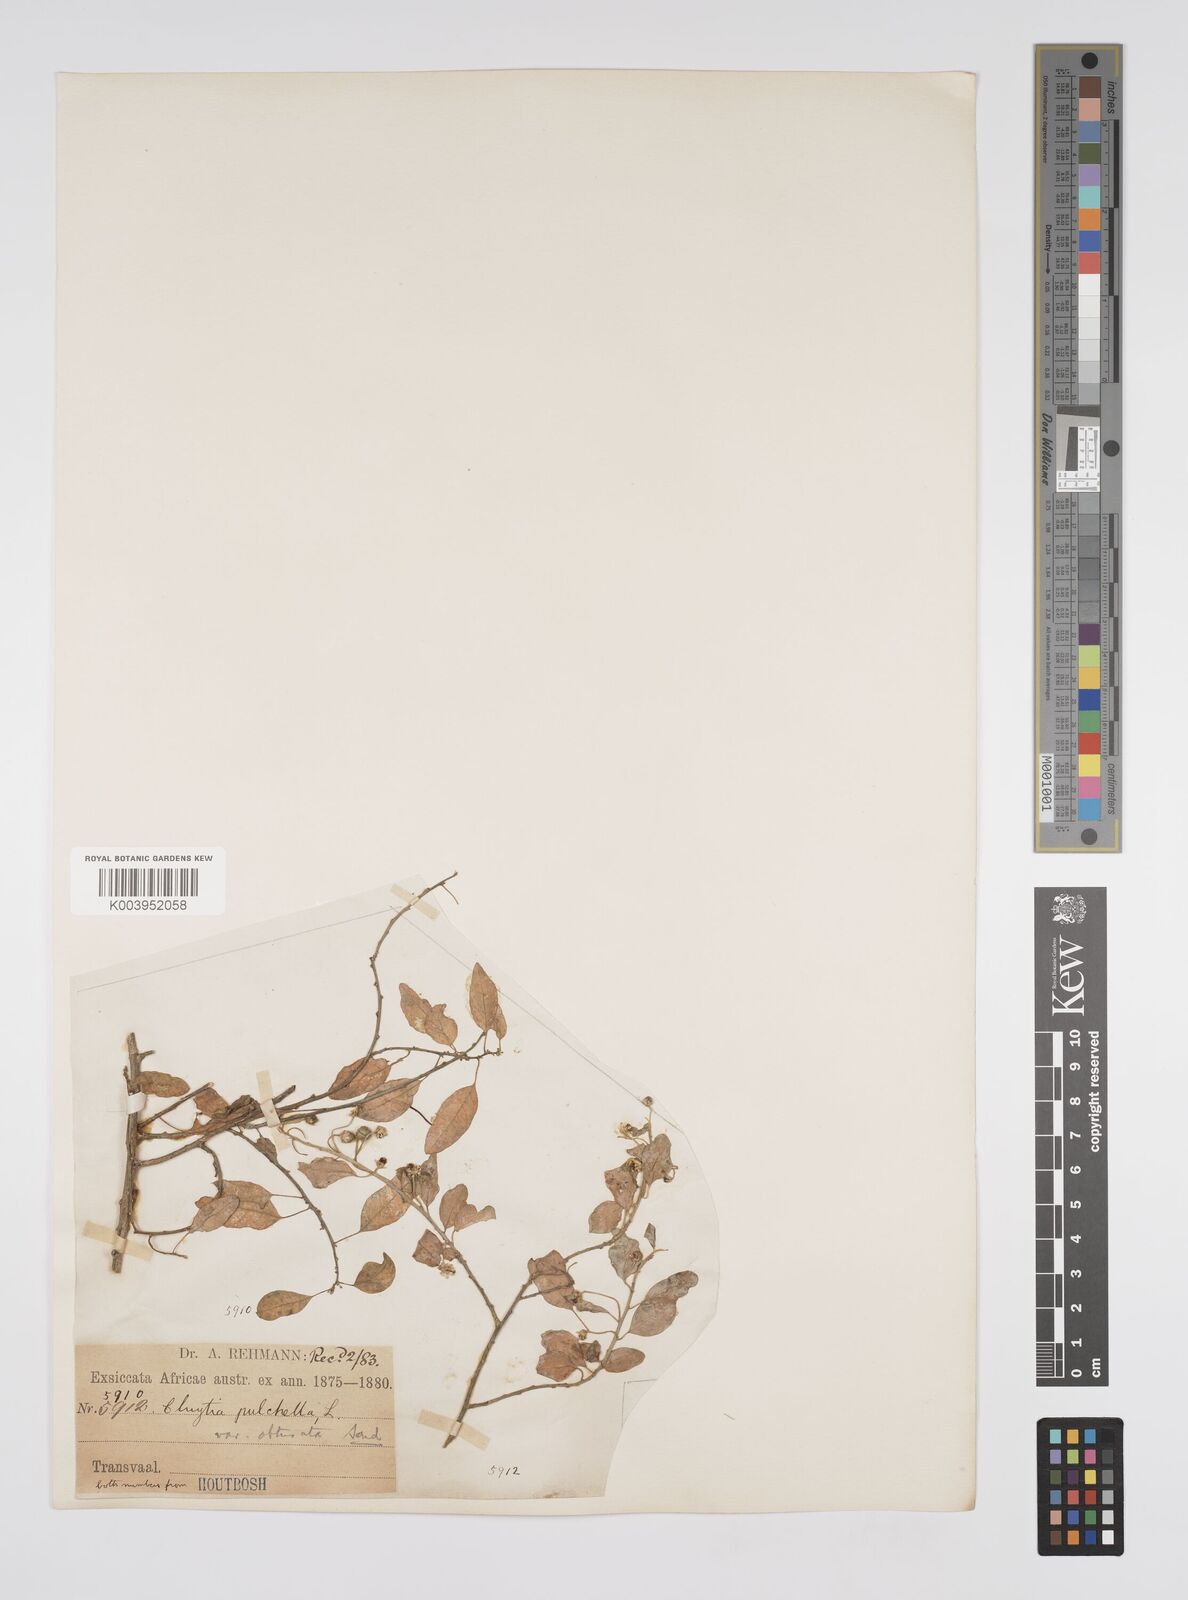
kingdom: Plantae
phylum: Tracheophyta
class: Magnoliopsida
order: Malpighiales
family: Peraceae
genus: Clutia
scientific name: Clutia pulchella
